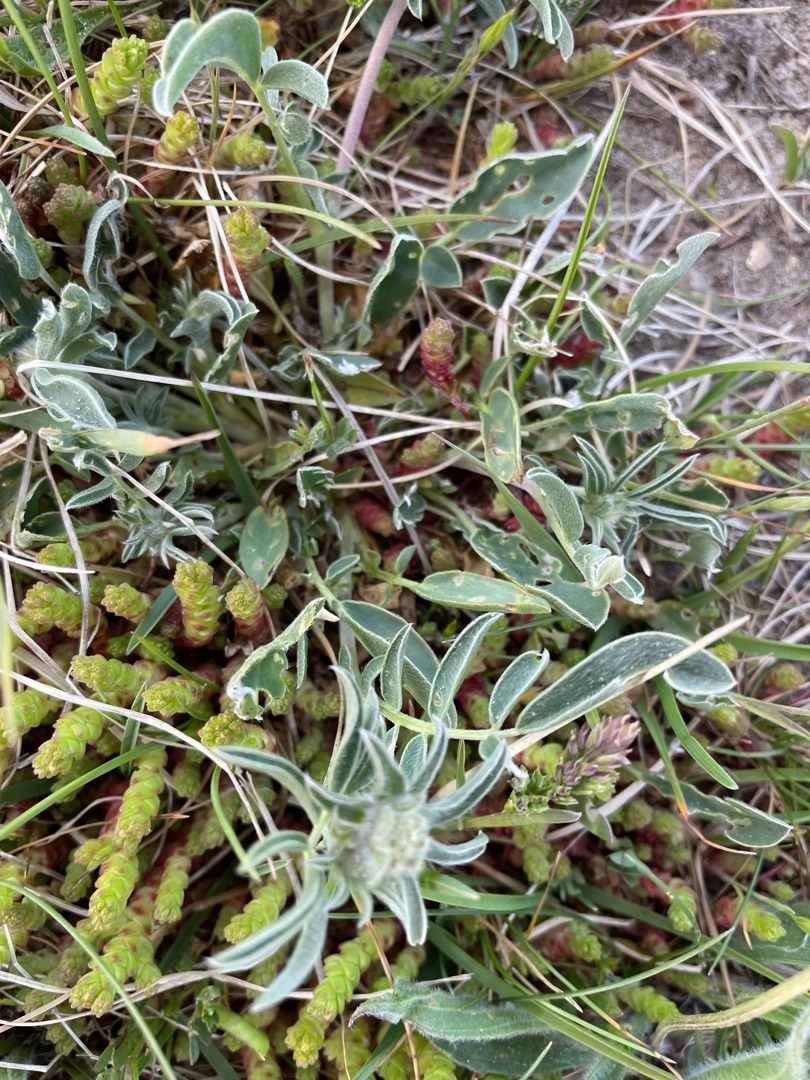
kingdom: Plantae
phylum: Tracheophyta
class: Magnoliopsida
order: Fabales
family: Fabaceae
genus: Anthyllis
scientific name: Anthyllis vulneraria
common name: Rundbælg
